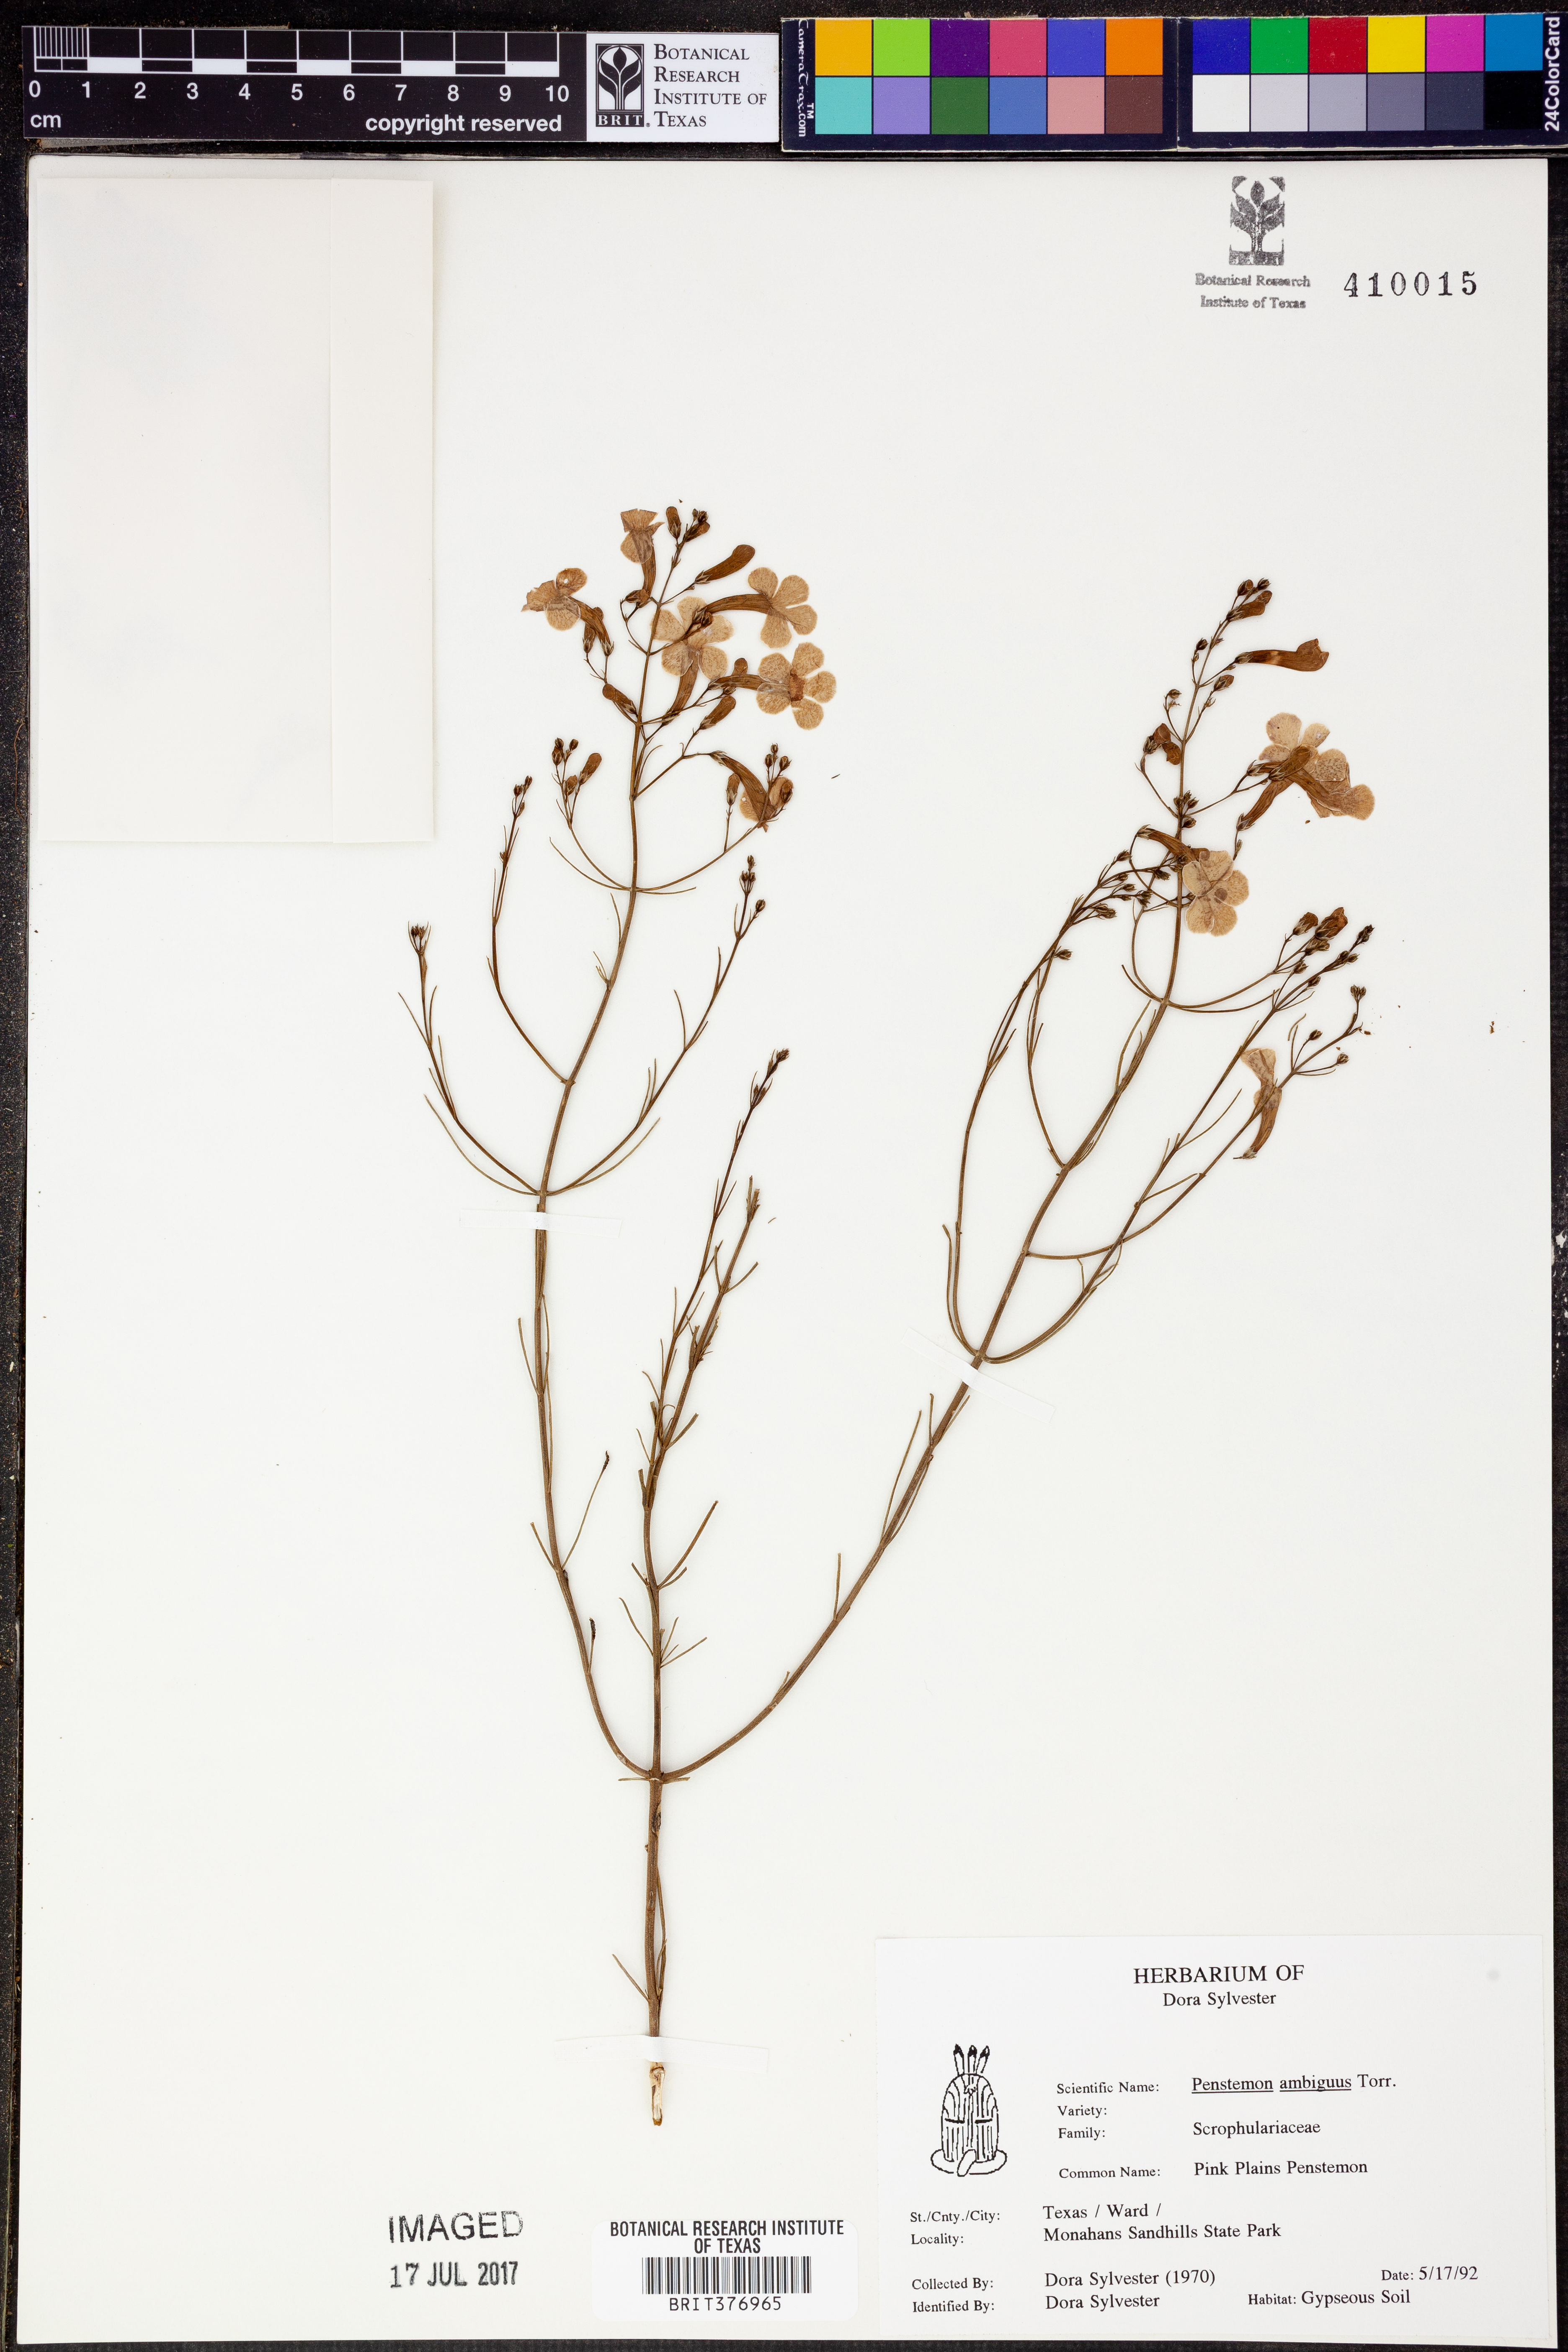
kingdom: Plantae
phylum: Tracheophyta
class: Magnoliopsida
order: Lamiales
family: Plantaginaceae
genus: Penstemon
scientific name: Penstemon ambiguus
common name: Bush penstemon
